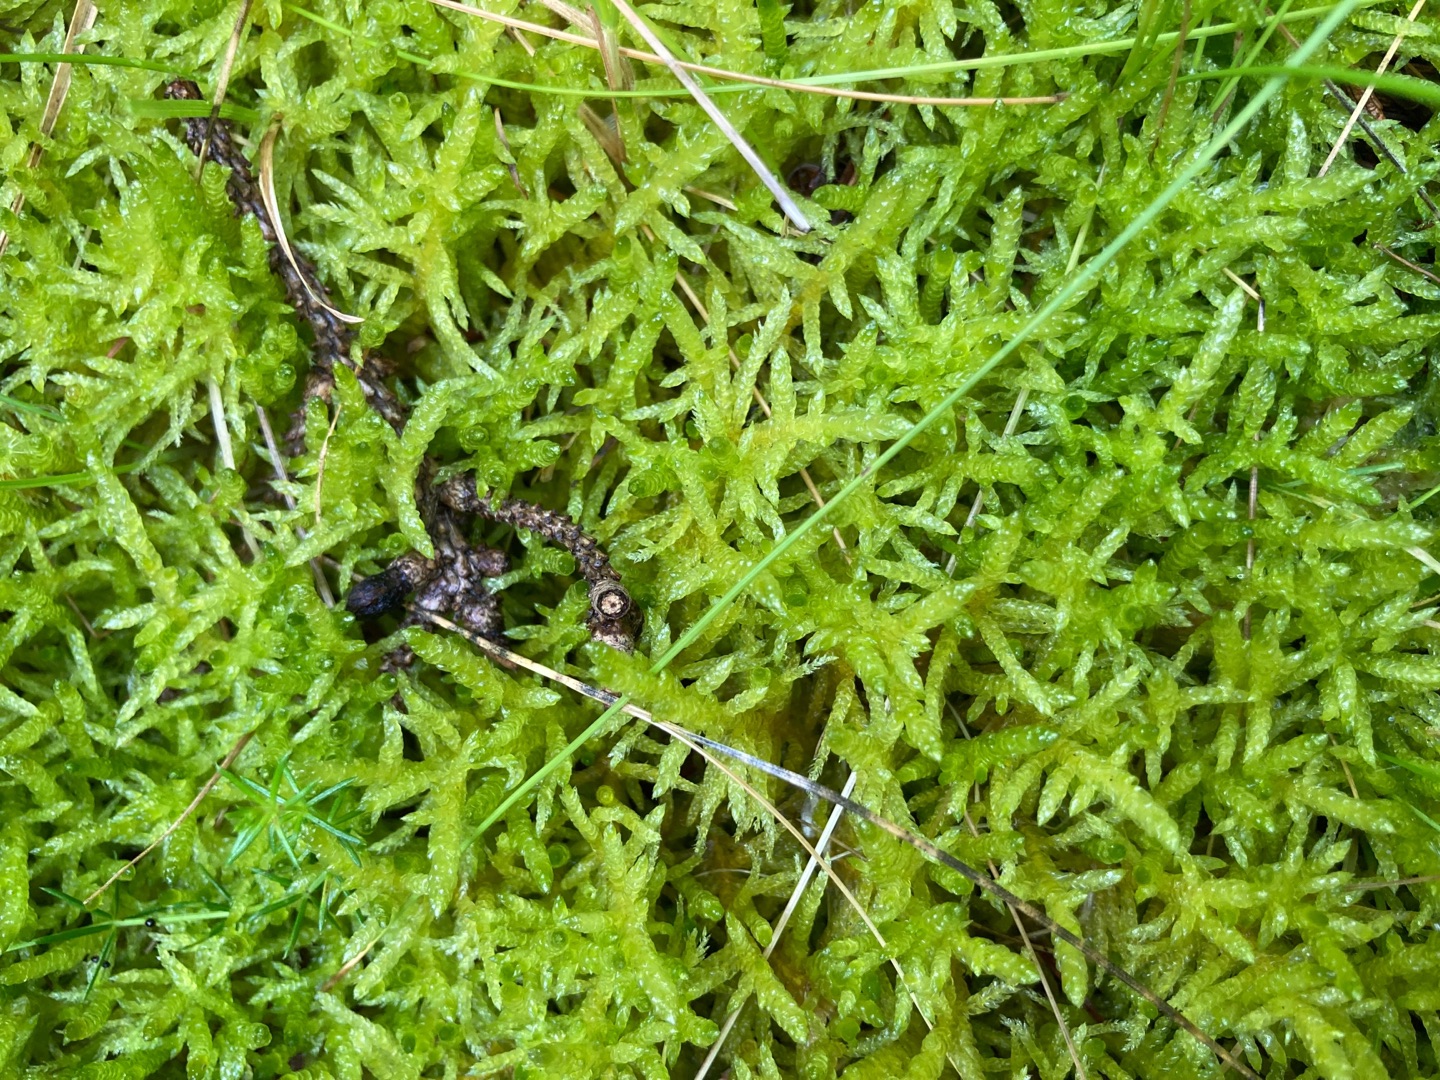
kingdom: Plantae
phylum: Bryophyta
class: Bryopsida
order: Hypnales
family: Brachytheciaceae
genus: Pseudoscleropodium
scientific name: Pseudoscleropodium purum
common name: Hulbladet fedtmos
